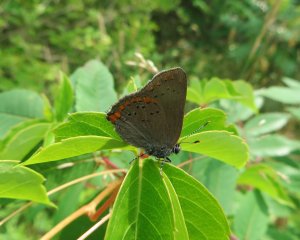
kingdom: Animalia
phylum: Arthropoda
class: Insecta
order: Lepidoptera
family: Lycaenidae
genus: Harkenclenus
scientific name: Harkenclenus titus
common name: Coral Hairstreak
